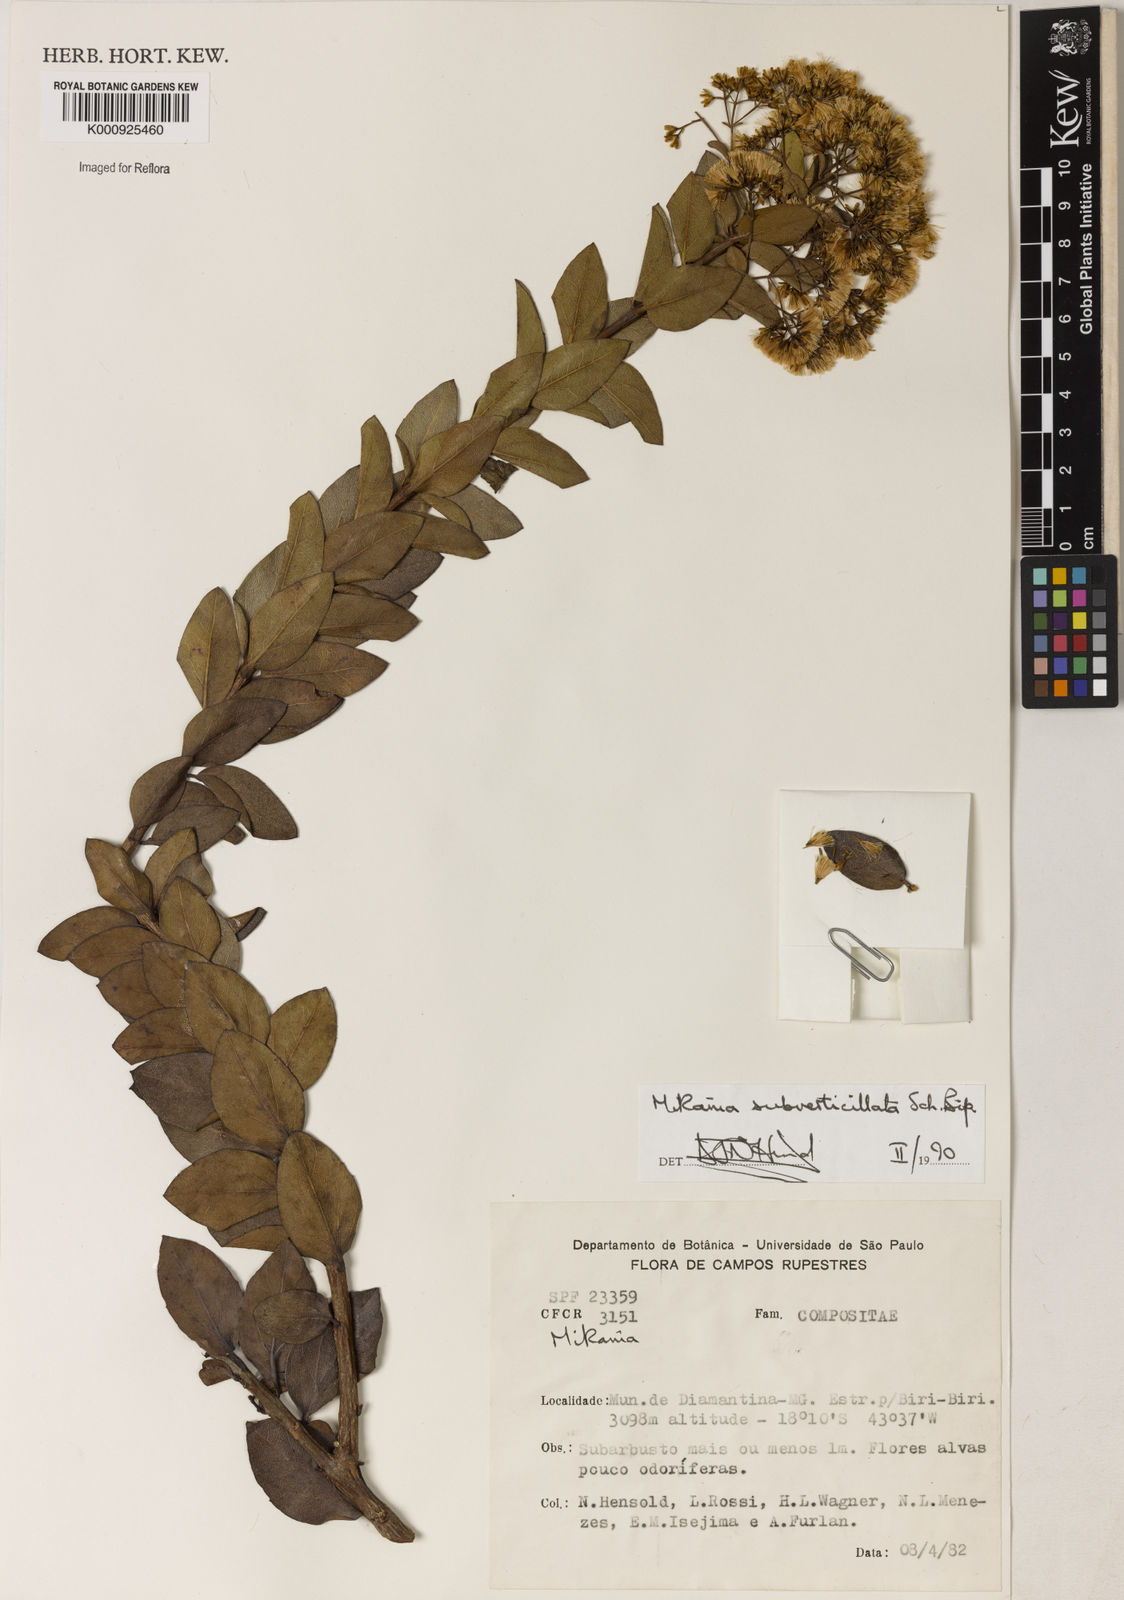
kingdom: Plantae
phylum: Tracheophyta
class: Magnoliopsida
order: Asterales
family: Asteraceae
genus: Mikania
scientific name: Mikania
